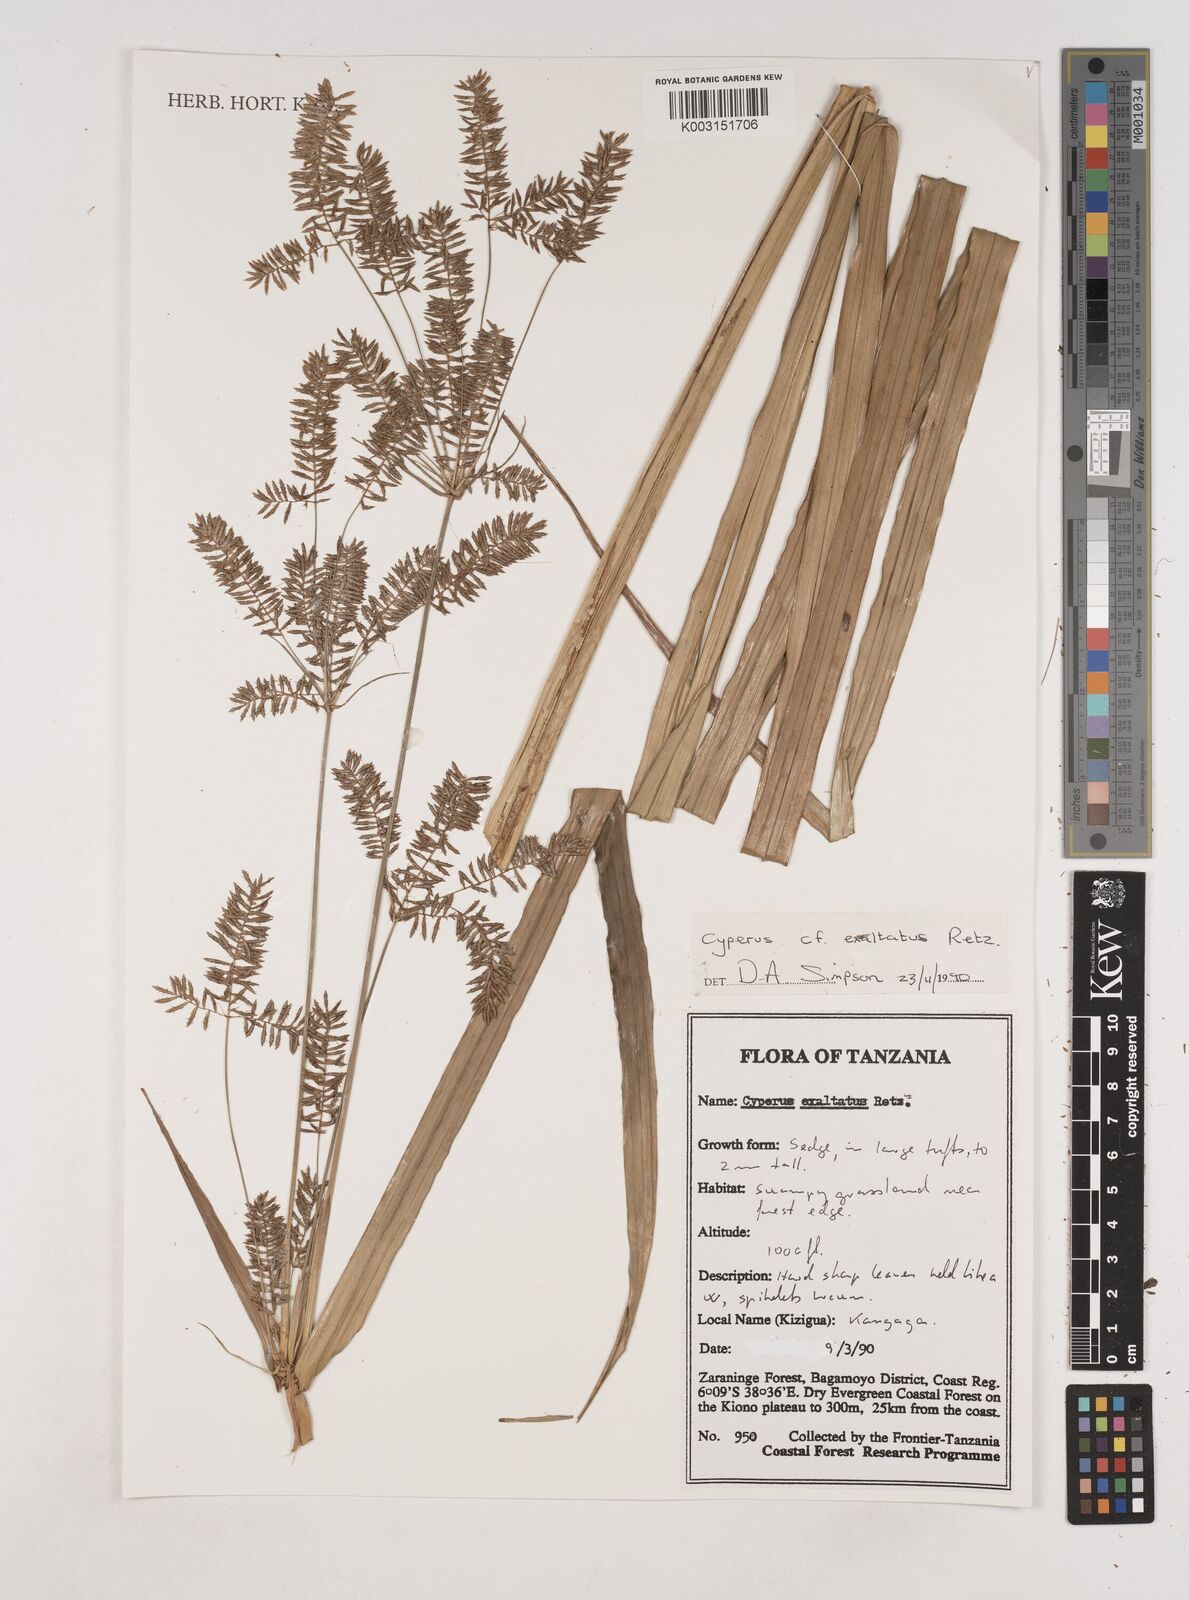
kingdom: Plantae
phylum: Tracheophyta
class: Liliopsida
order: Poales
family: Cyperaceae
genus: Cyperus
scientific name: Cyperus exaltatus
